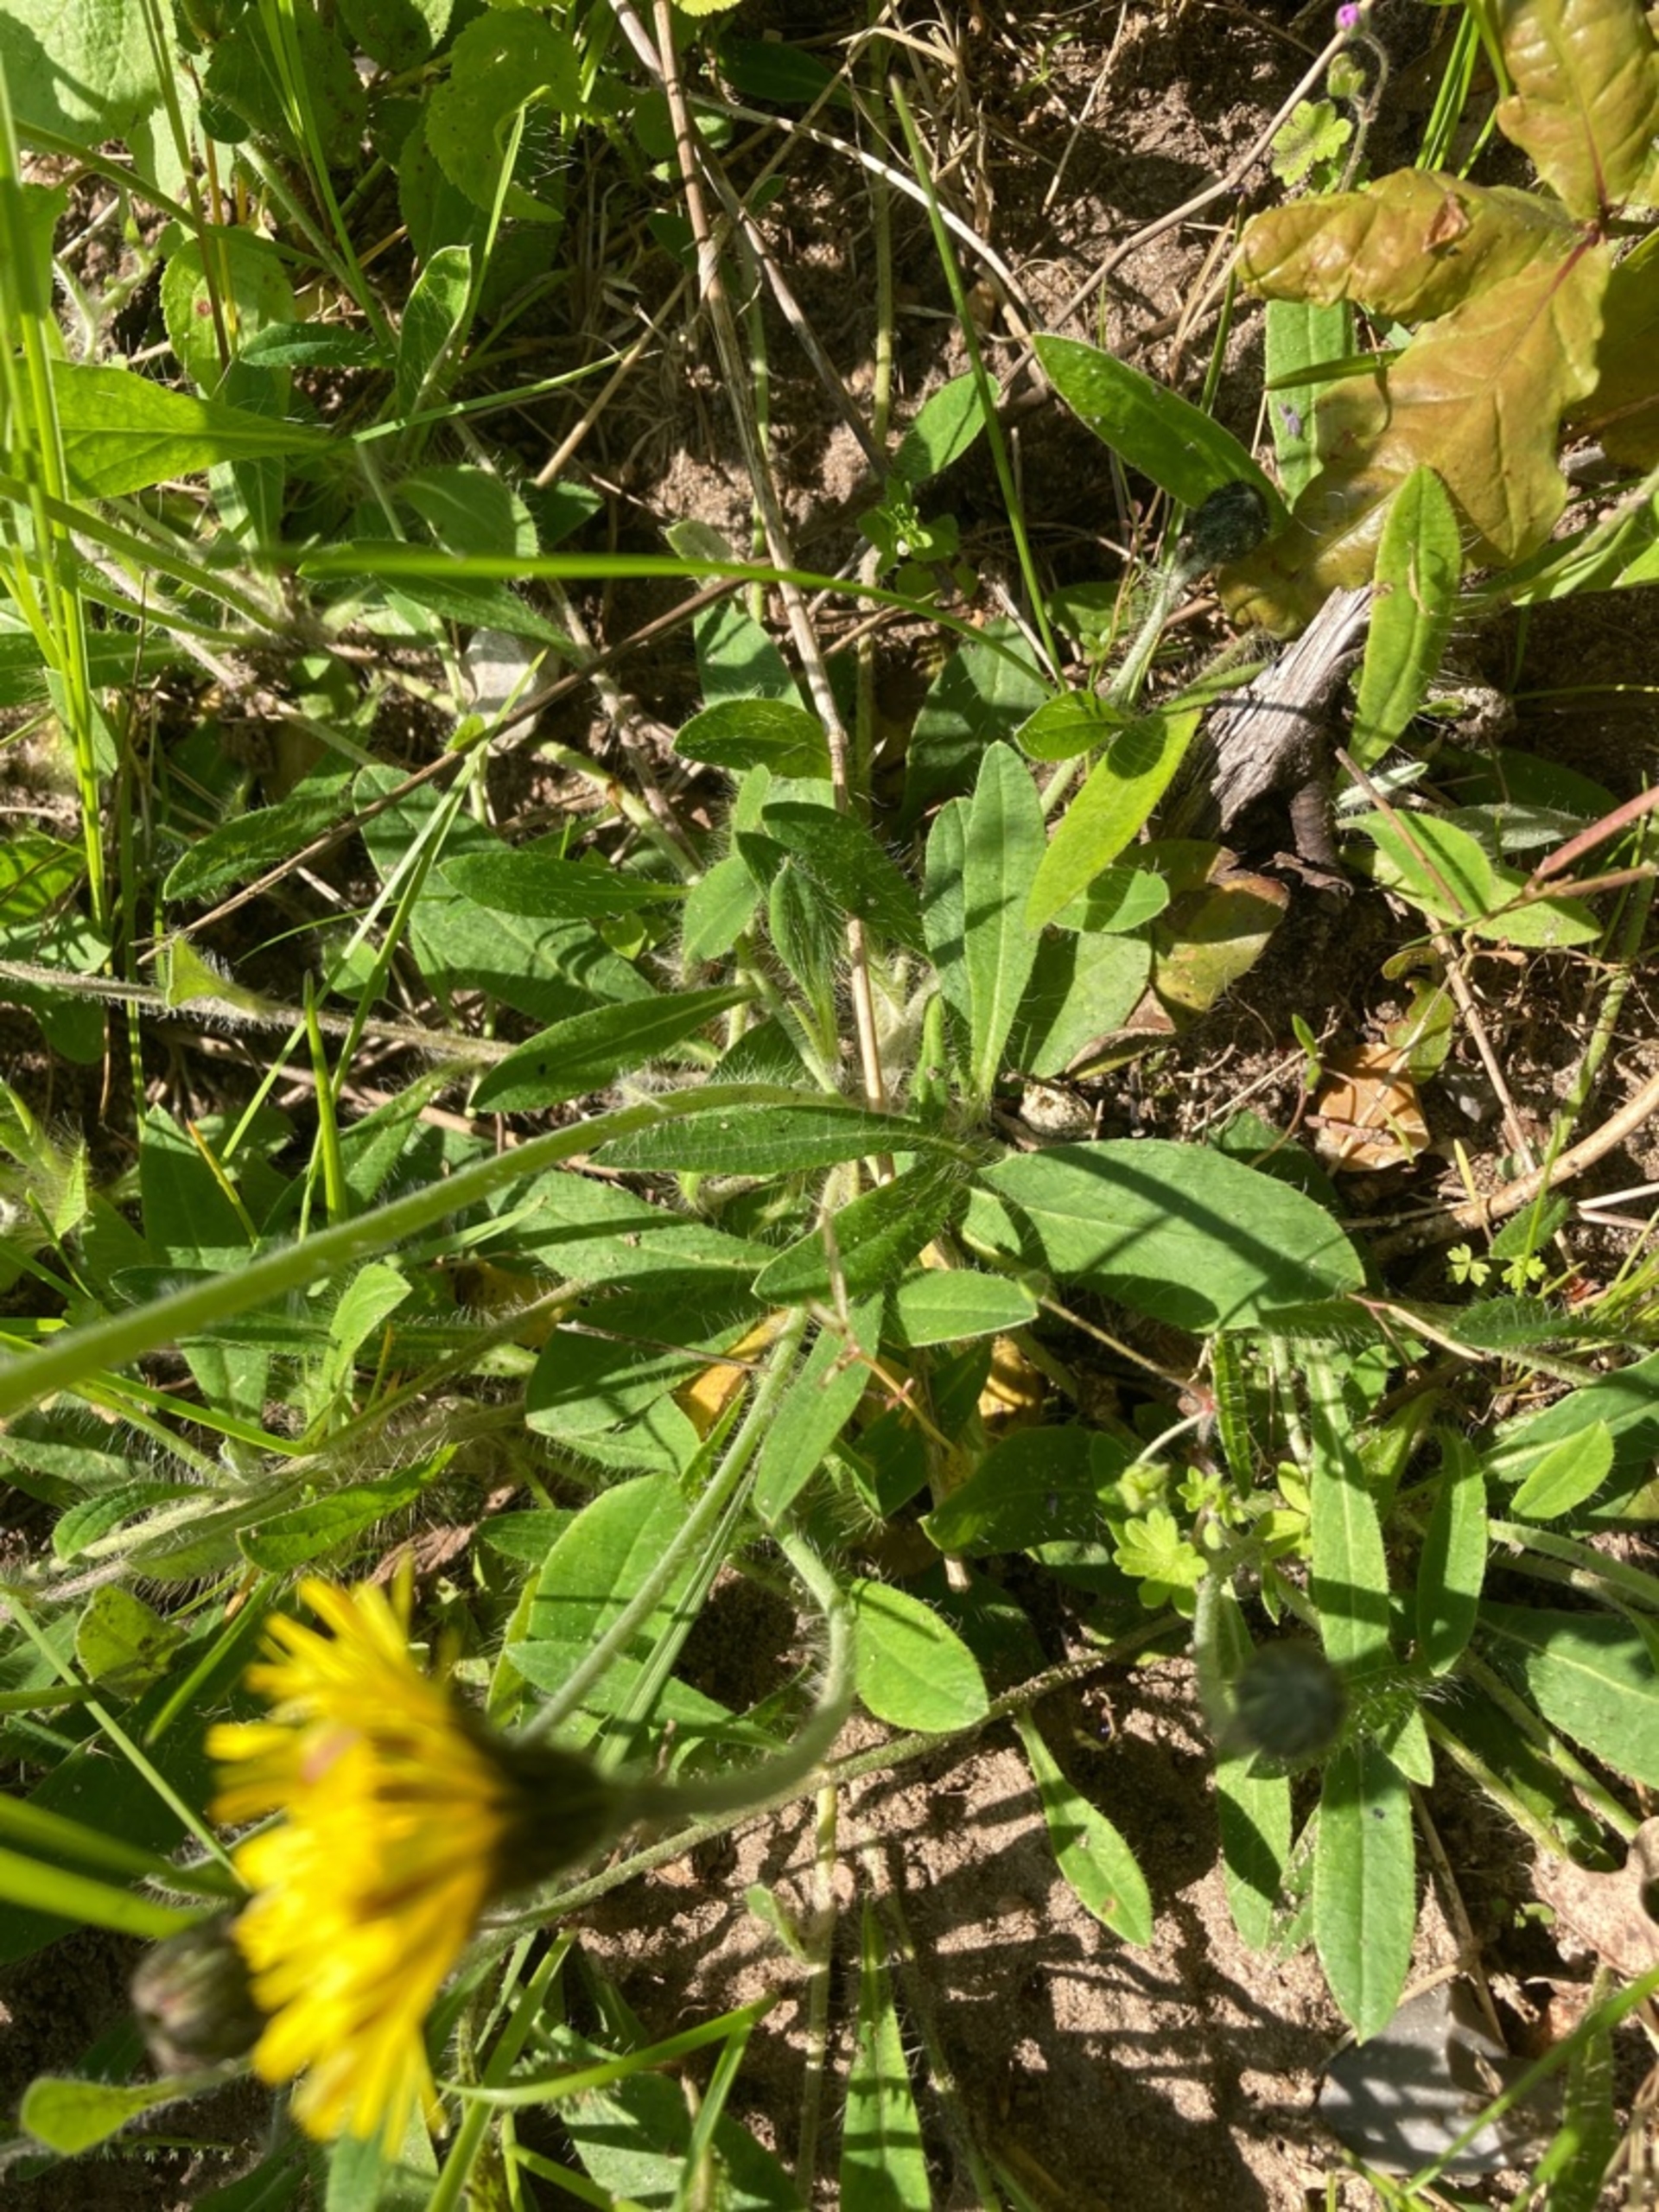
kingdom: Plantae
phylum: Tracheophyta
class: Magnoliopsida
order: Asterales
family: Asteraceae
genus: Pilosella
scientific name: Pilosella officinarum
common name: Håret høgeurt
